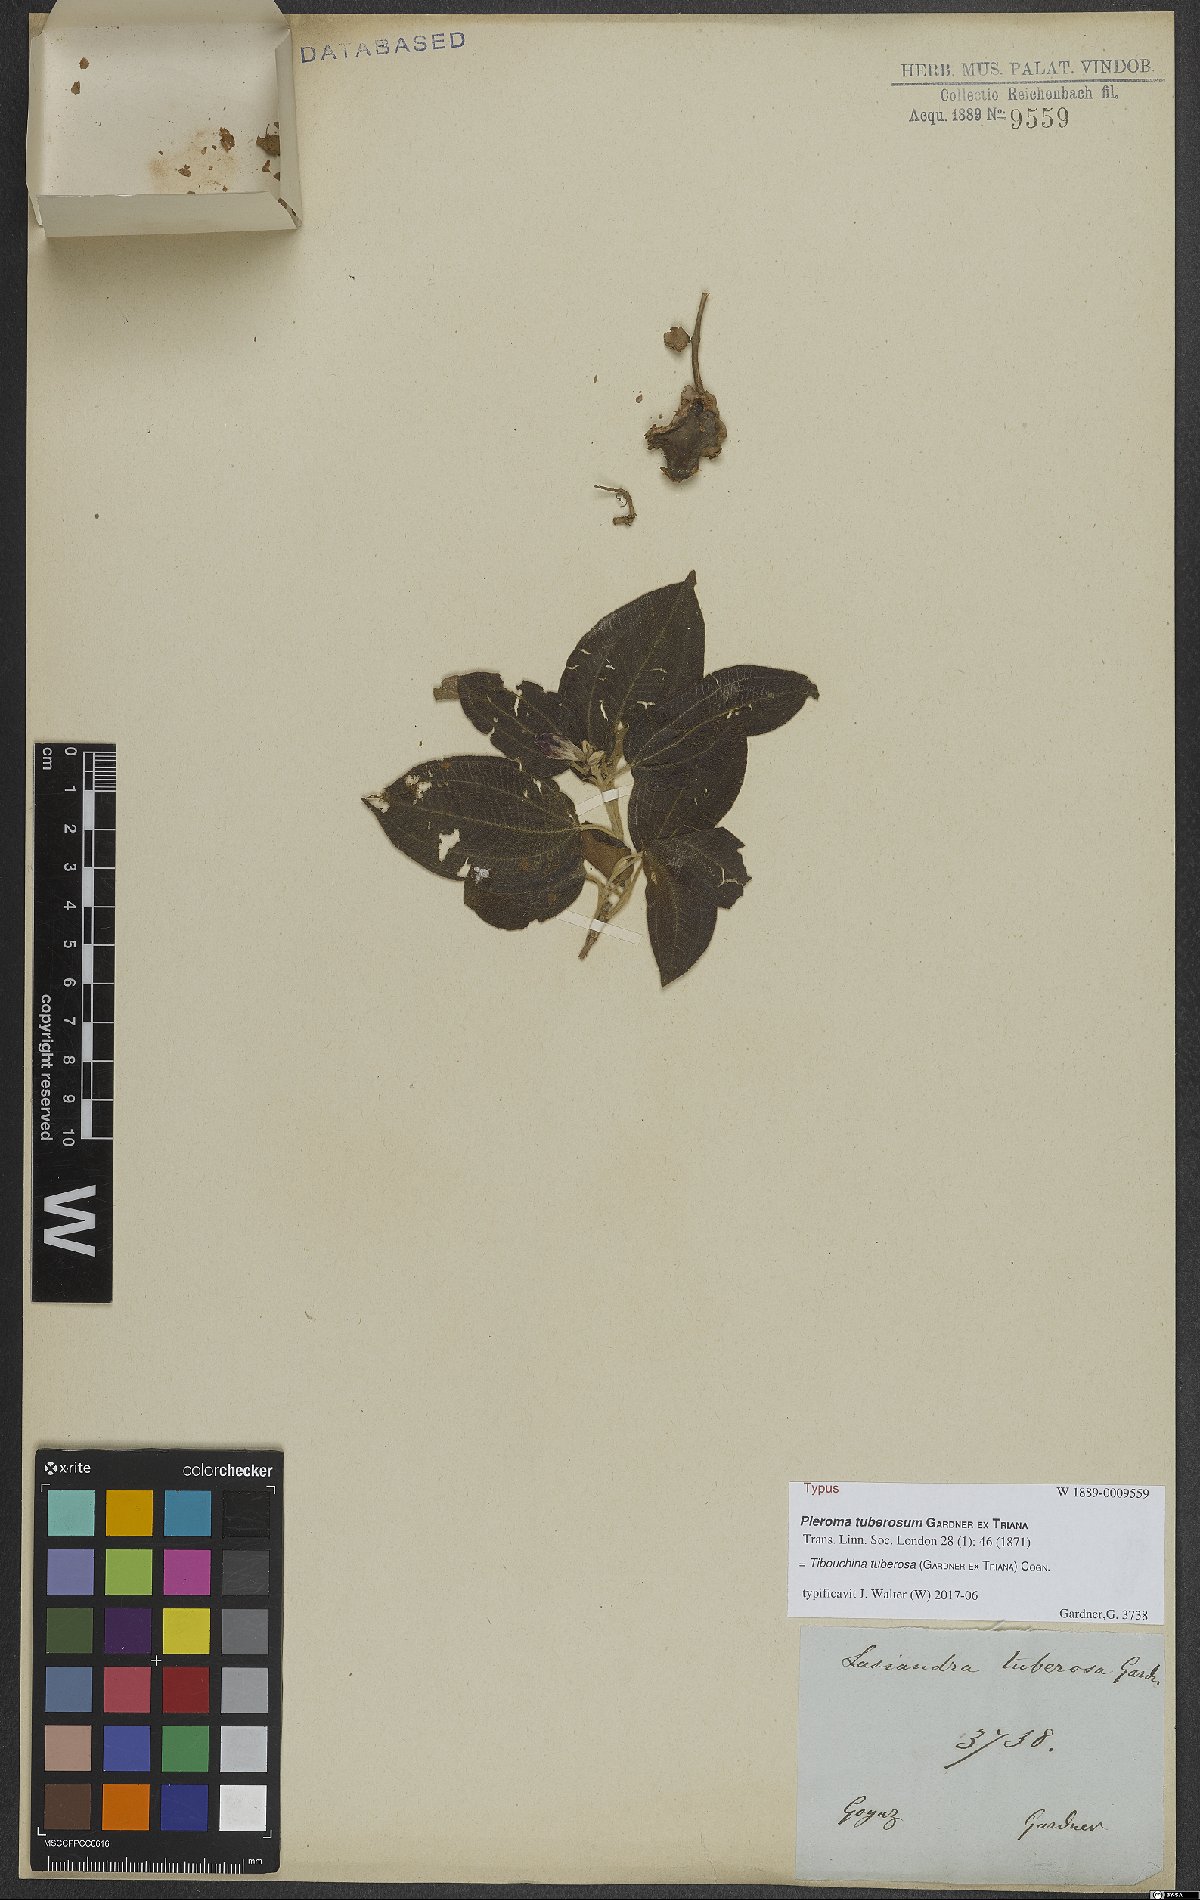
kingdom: Plantae
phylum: Tracheophyta
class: Magnoliopsida
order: Myrtales
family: Melastomataceae
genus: Pleroma
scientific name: Pleroma tuberosum
